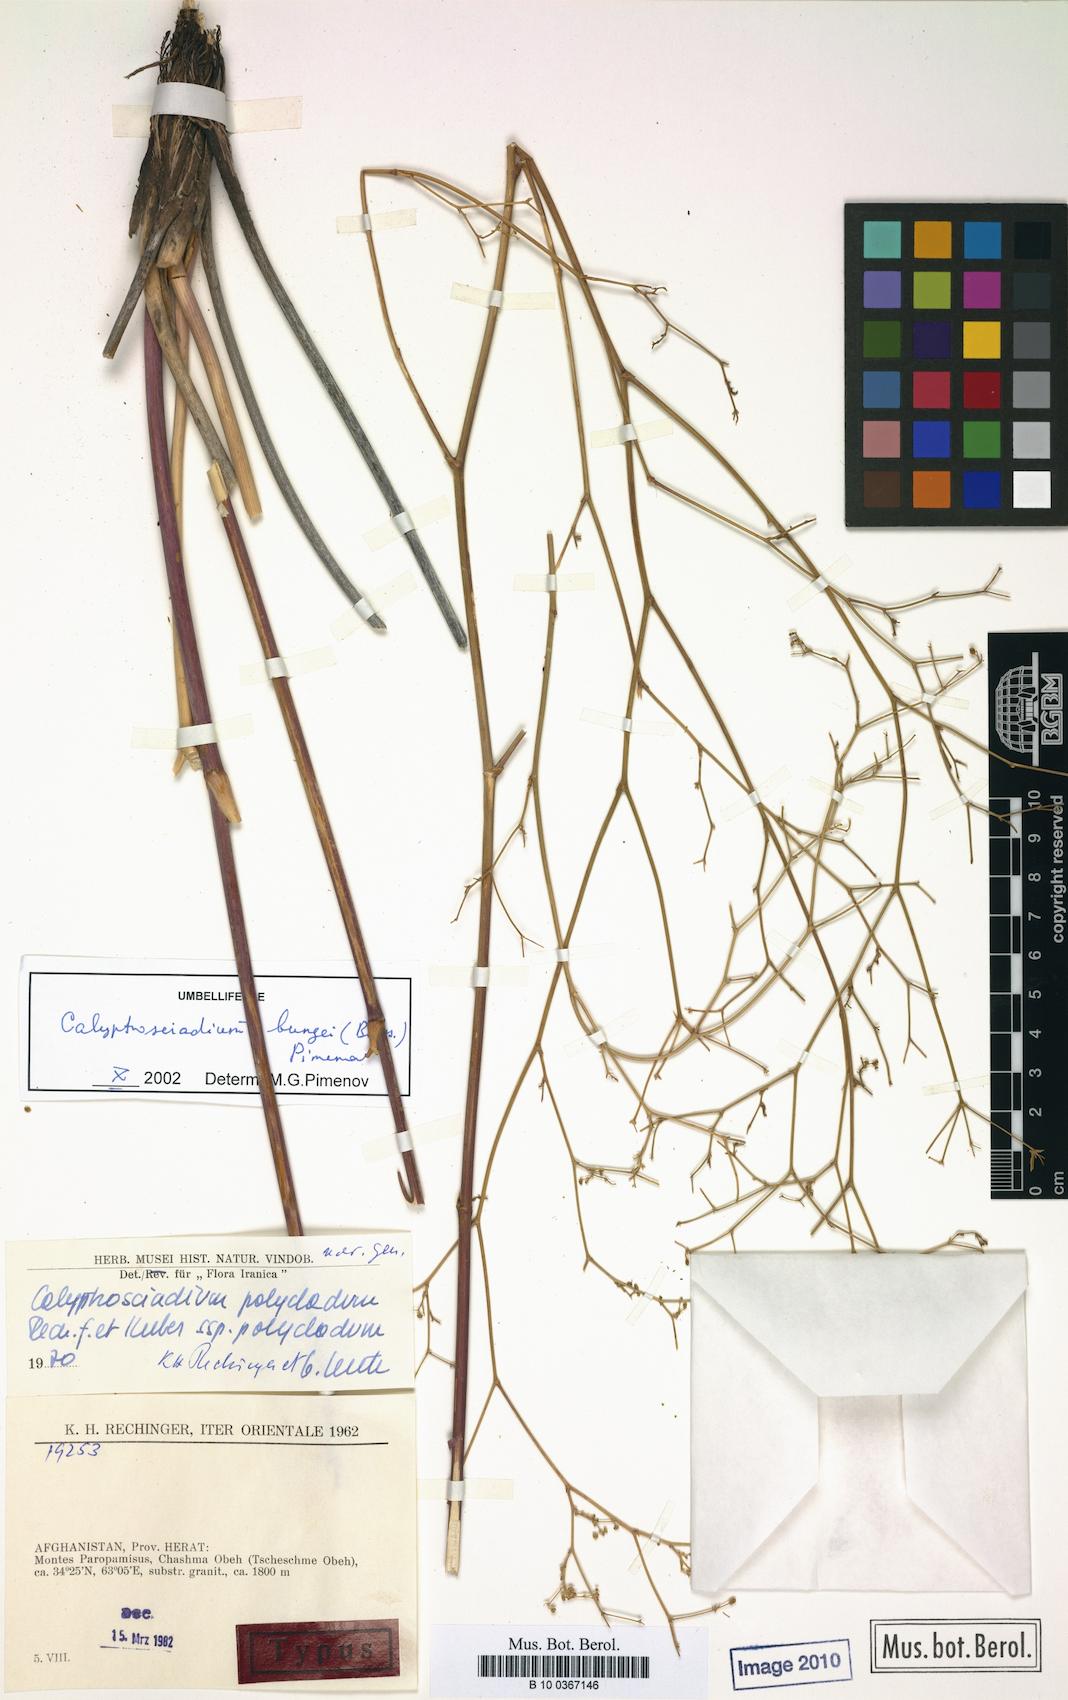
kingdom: Plantae
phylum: Tracheophyta
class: Magnoliopsida
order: Apiales
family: Apiaceae
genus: Calyptrosciadium
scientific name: Calyptrosciadium bungei
